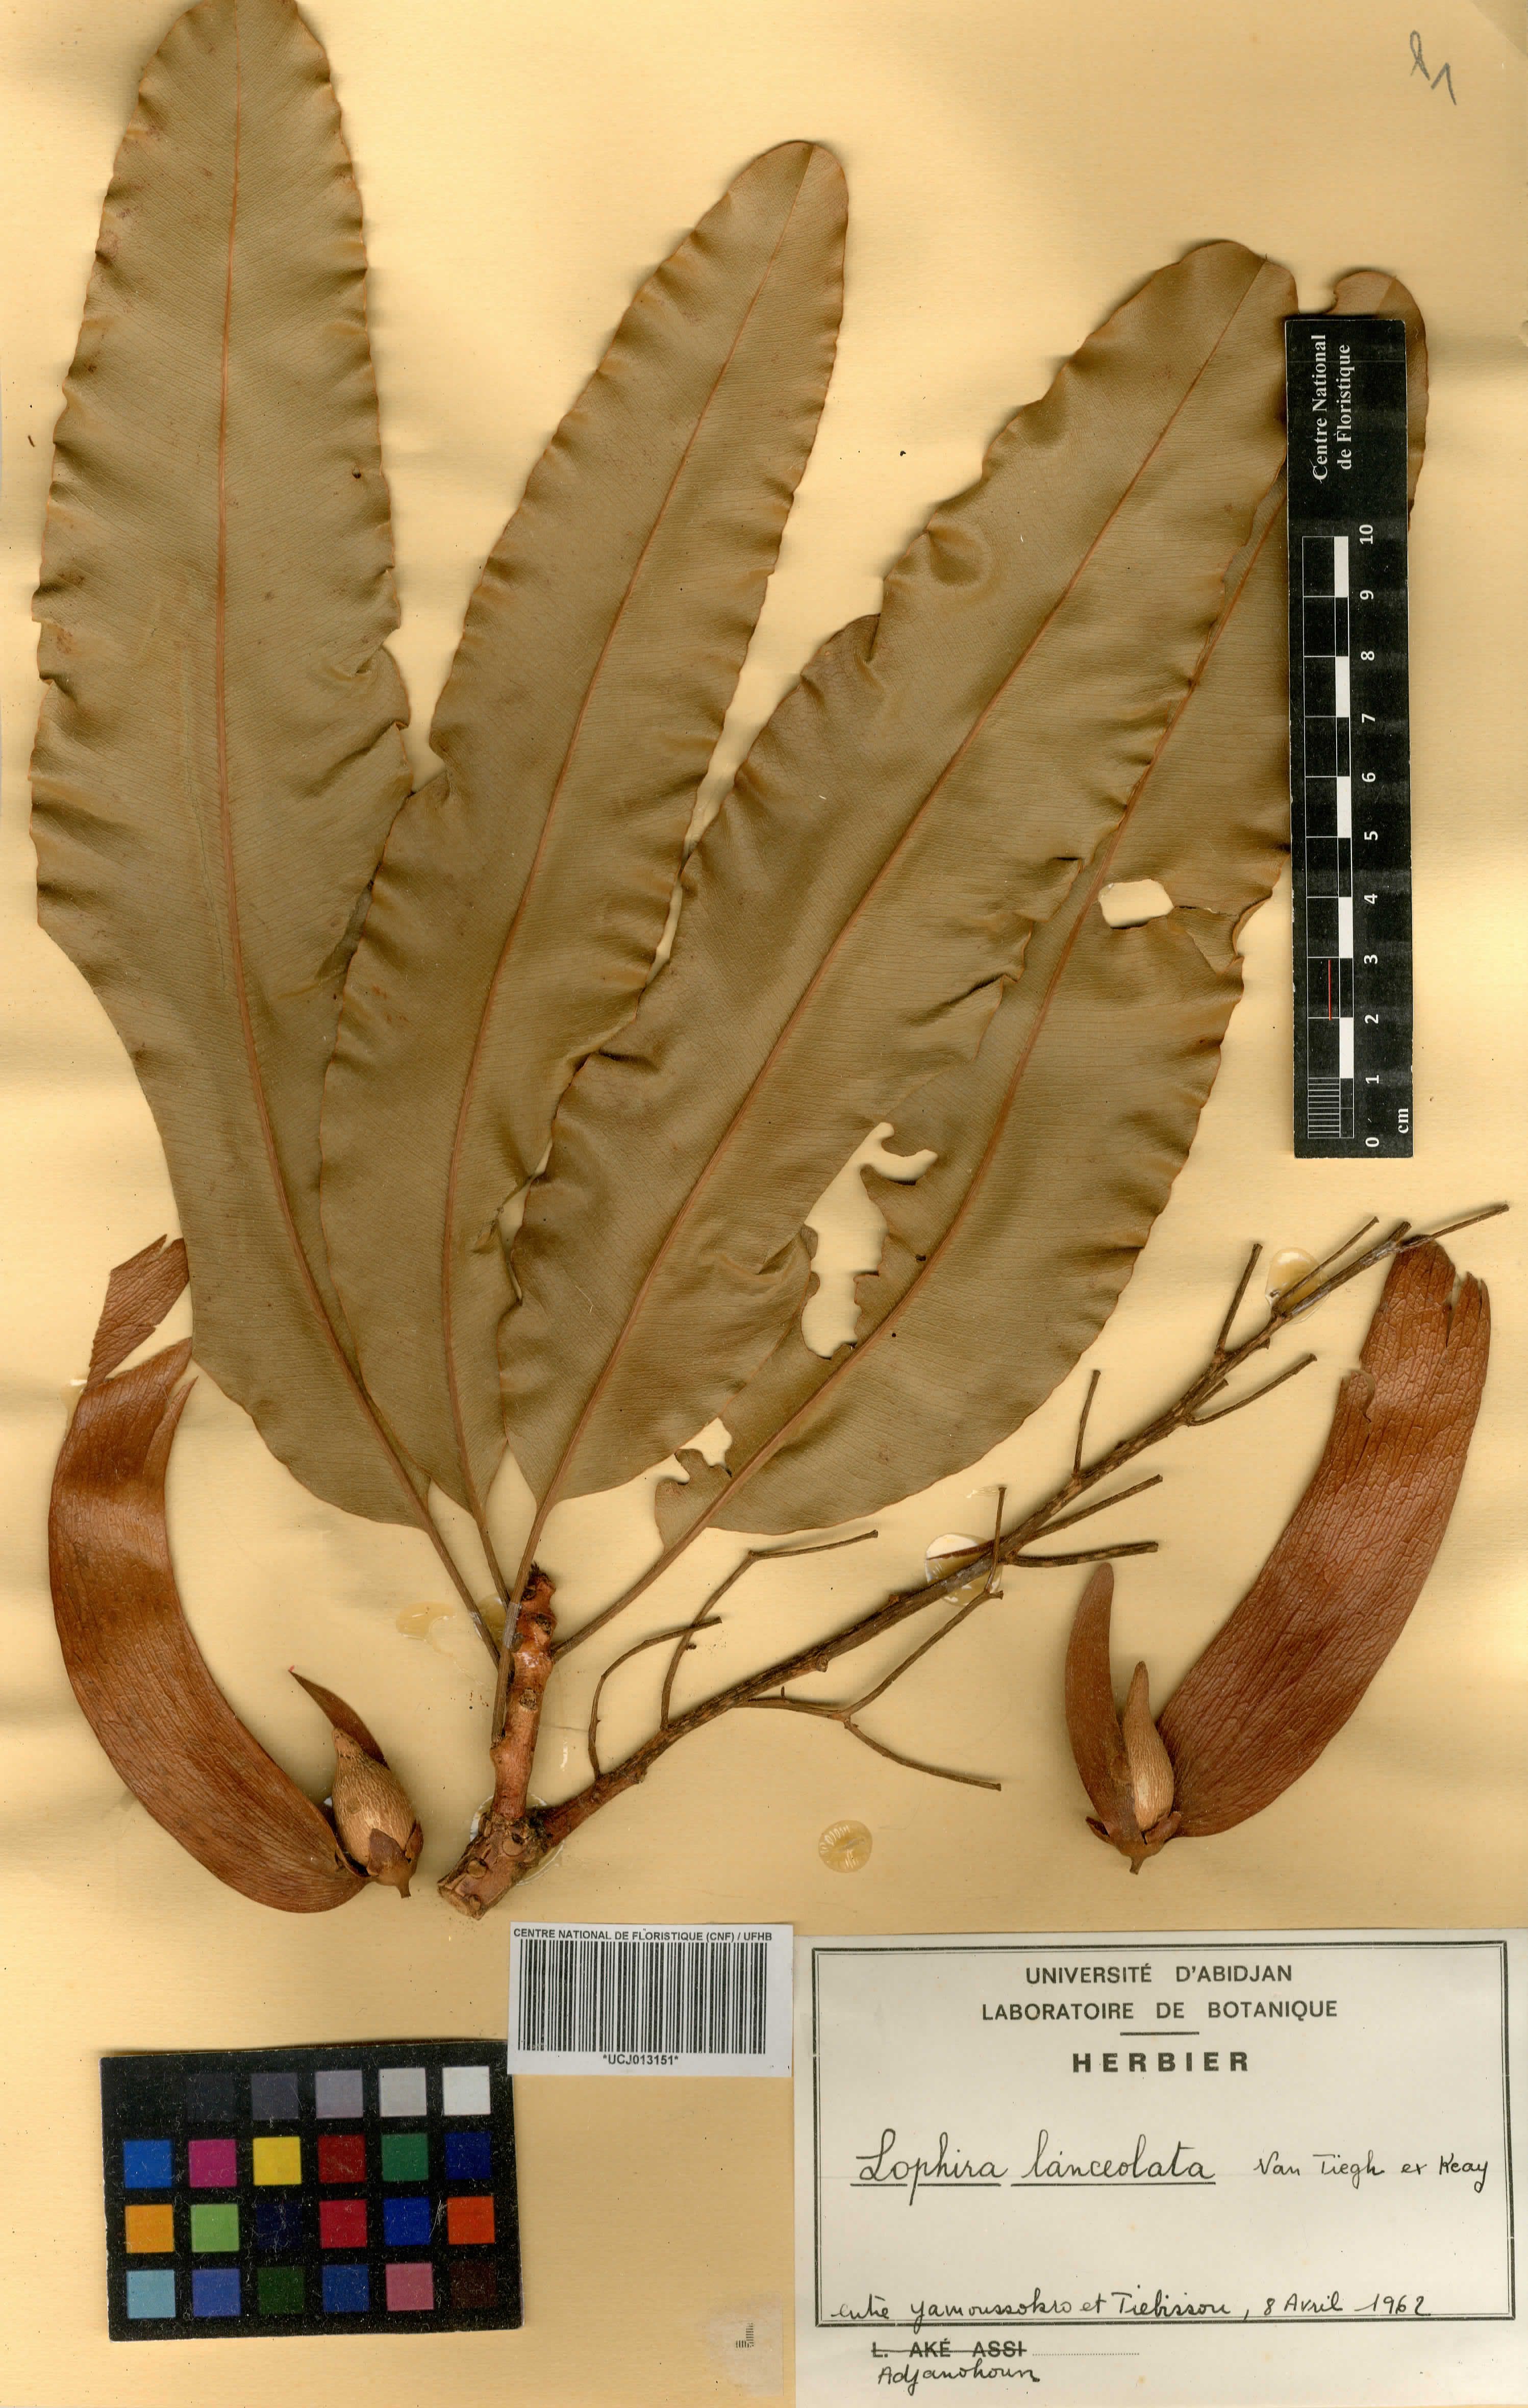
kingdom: Plantae
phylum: Tracheophyta
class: Magnoliopsida
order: Malpighiales
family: Ochnaceae
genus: Lophira
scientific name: Lophira lanceolata
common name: Dwarf red ironwood
